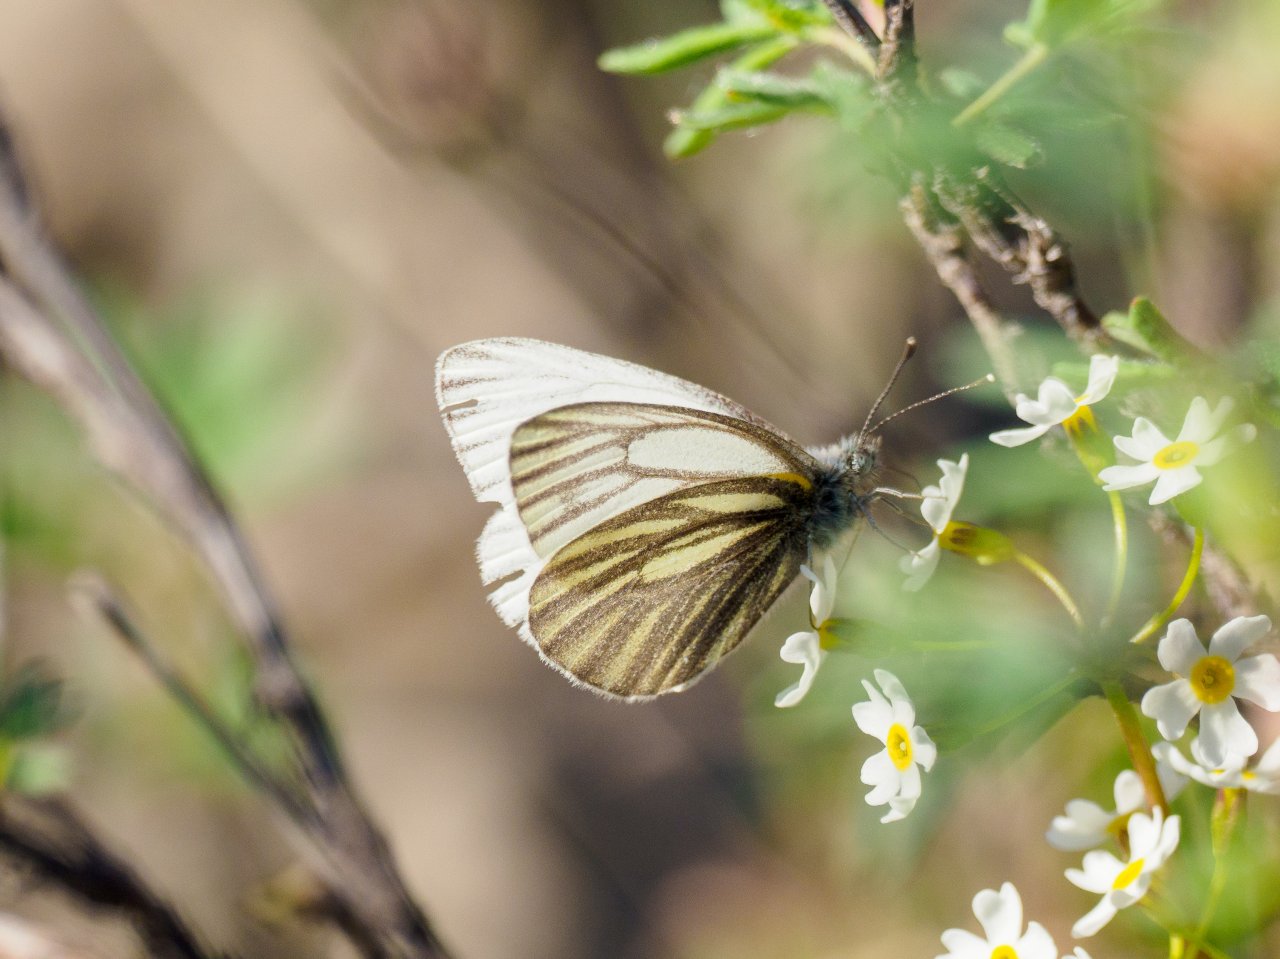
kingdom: Animalia
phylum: Arthropoda
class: Insecta
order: Lepidoptera
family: Pieridae
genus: Pieris
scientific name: Pieris angelika
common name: Arctic White
